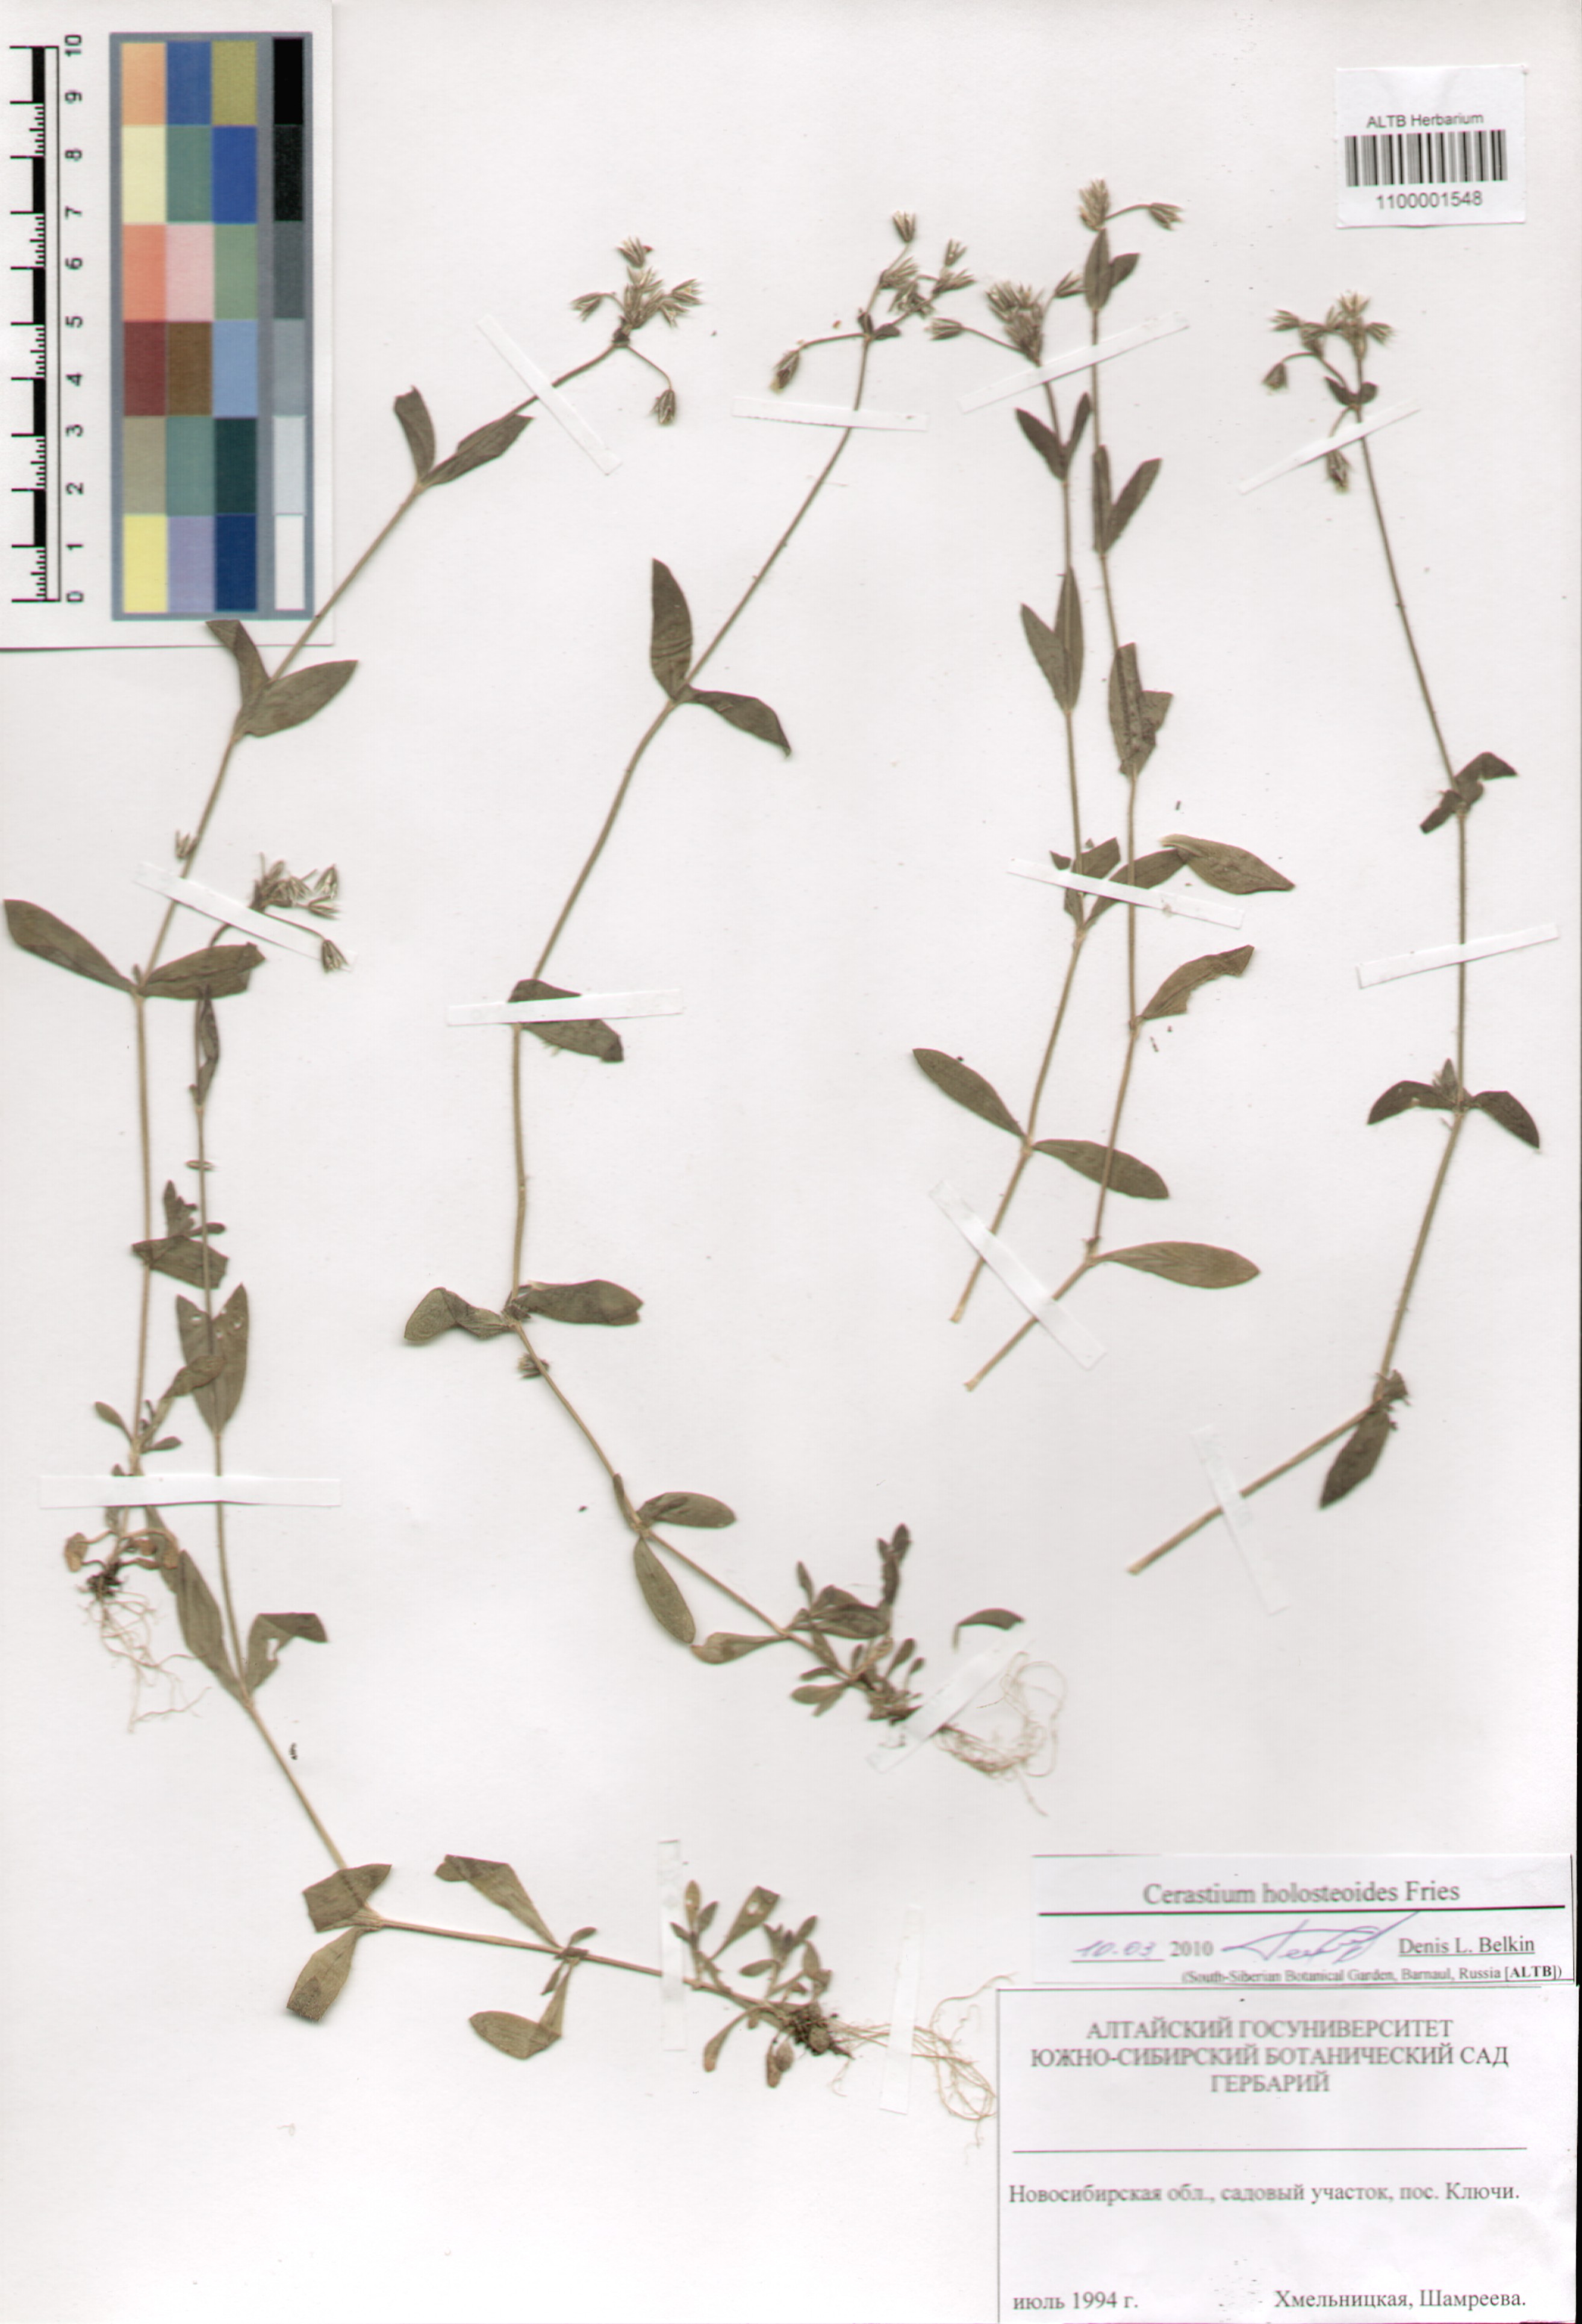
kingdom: Plantae
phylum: Tracheophyta
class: Magnoliopsida
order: Caryophyllales
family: Caryophyllaceae
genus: Cerastium
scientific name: Cerastium holosteoides
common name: Big chickweed
